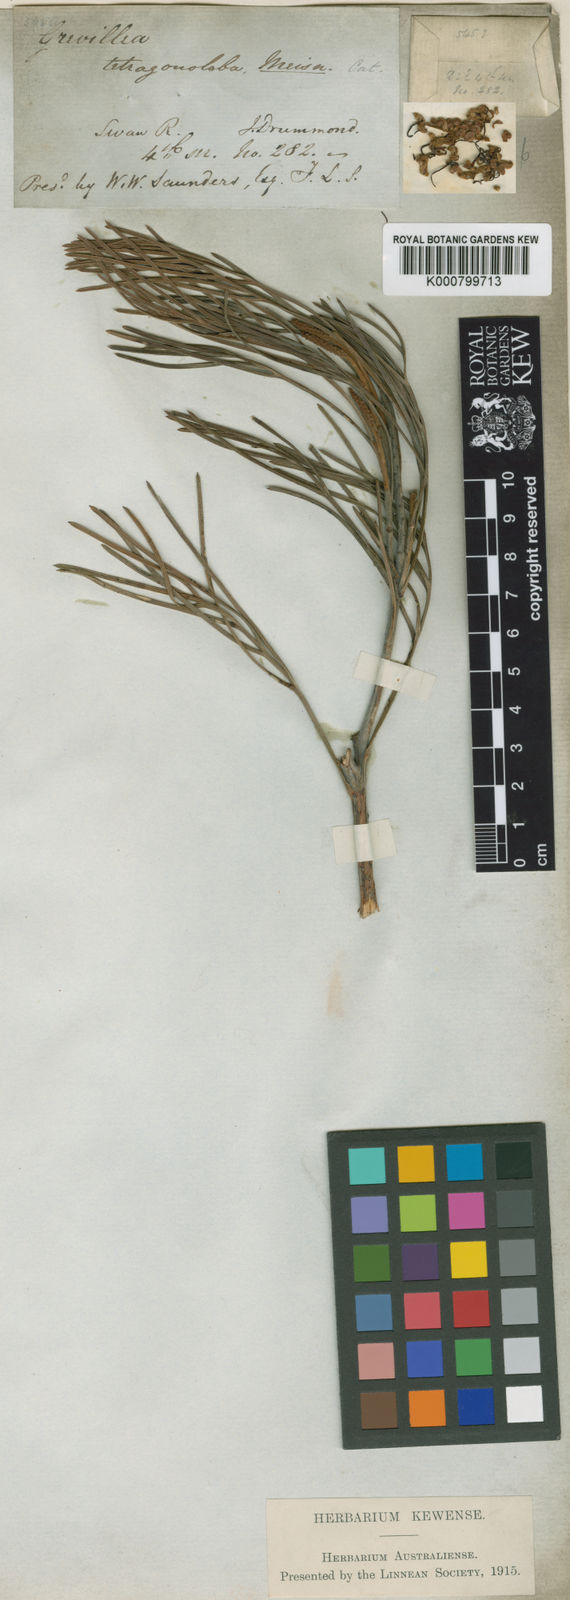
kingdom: Plantae
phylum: Tracheophyta
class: Magnoliopsida
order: Proteales
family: Proteaceae
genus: Grevillea
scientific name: Grevillea tetragonoloba
